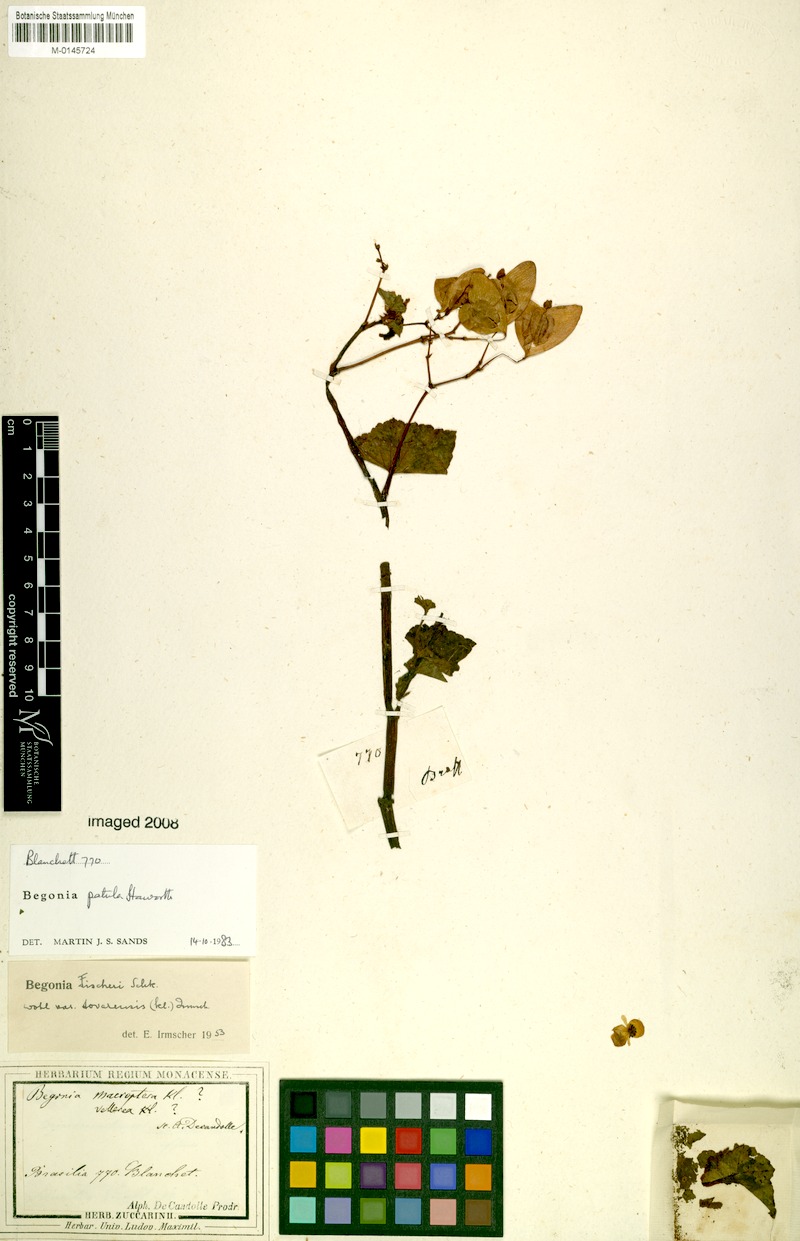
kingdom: Plantae
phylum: Tracheophyta
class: Magnoliopsida
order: Cucurbitales
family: Begoniaceae
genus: Begonia
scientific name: Begonia fischeri
